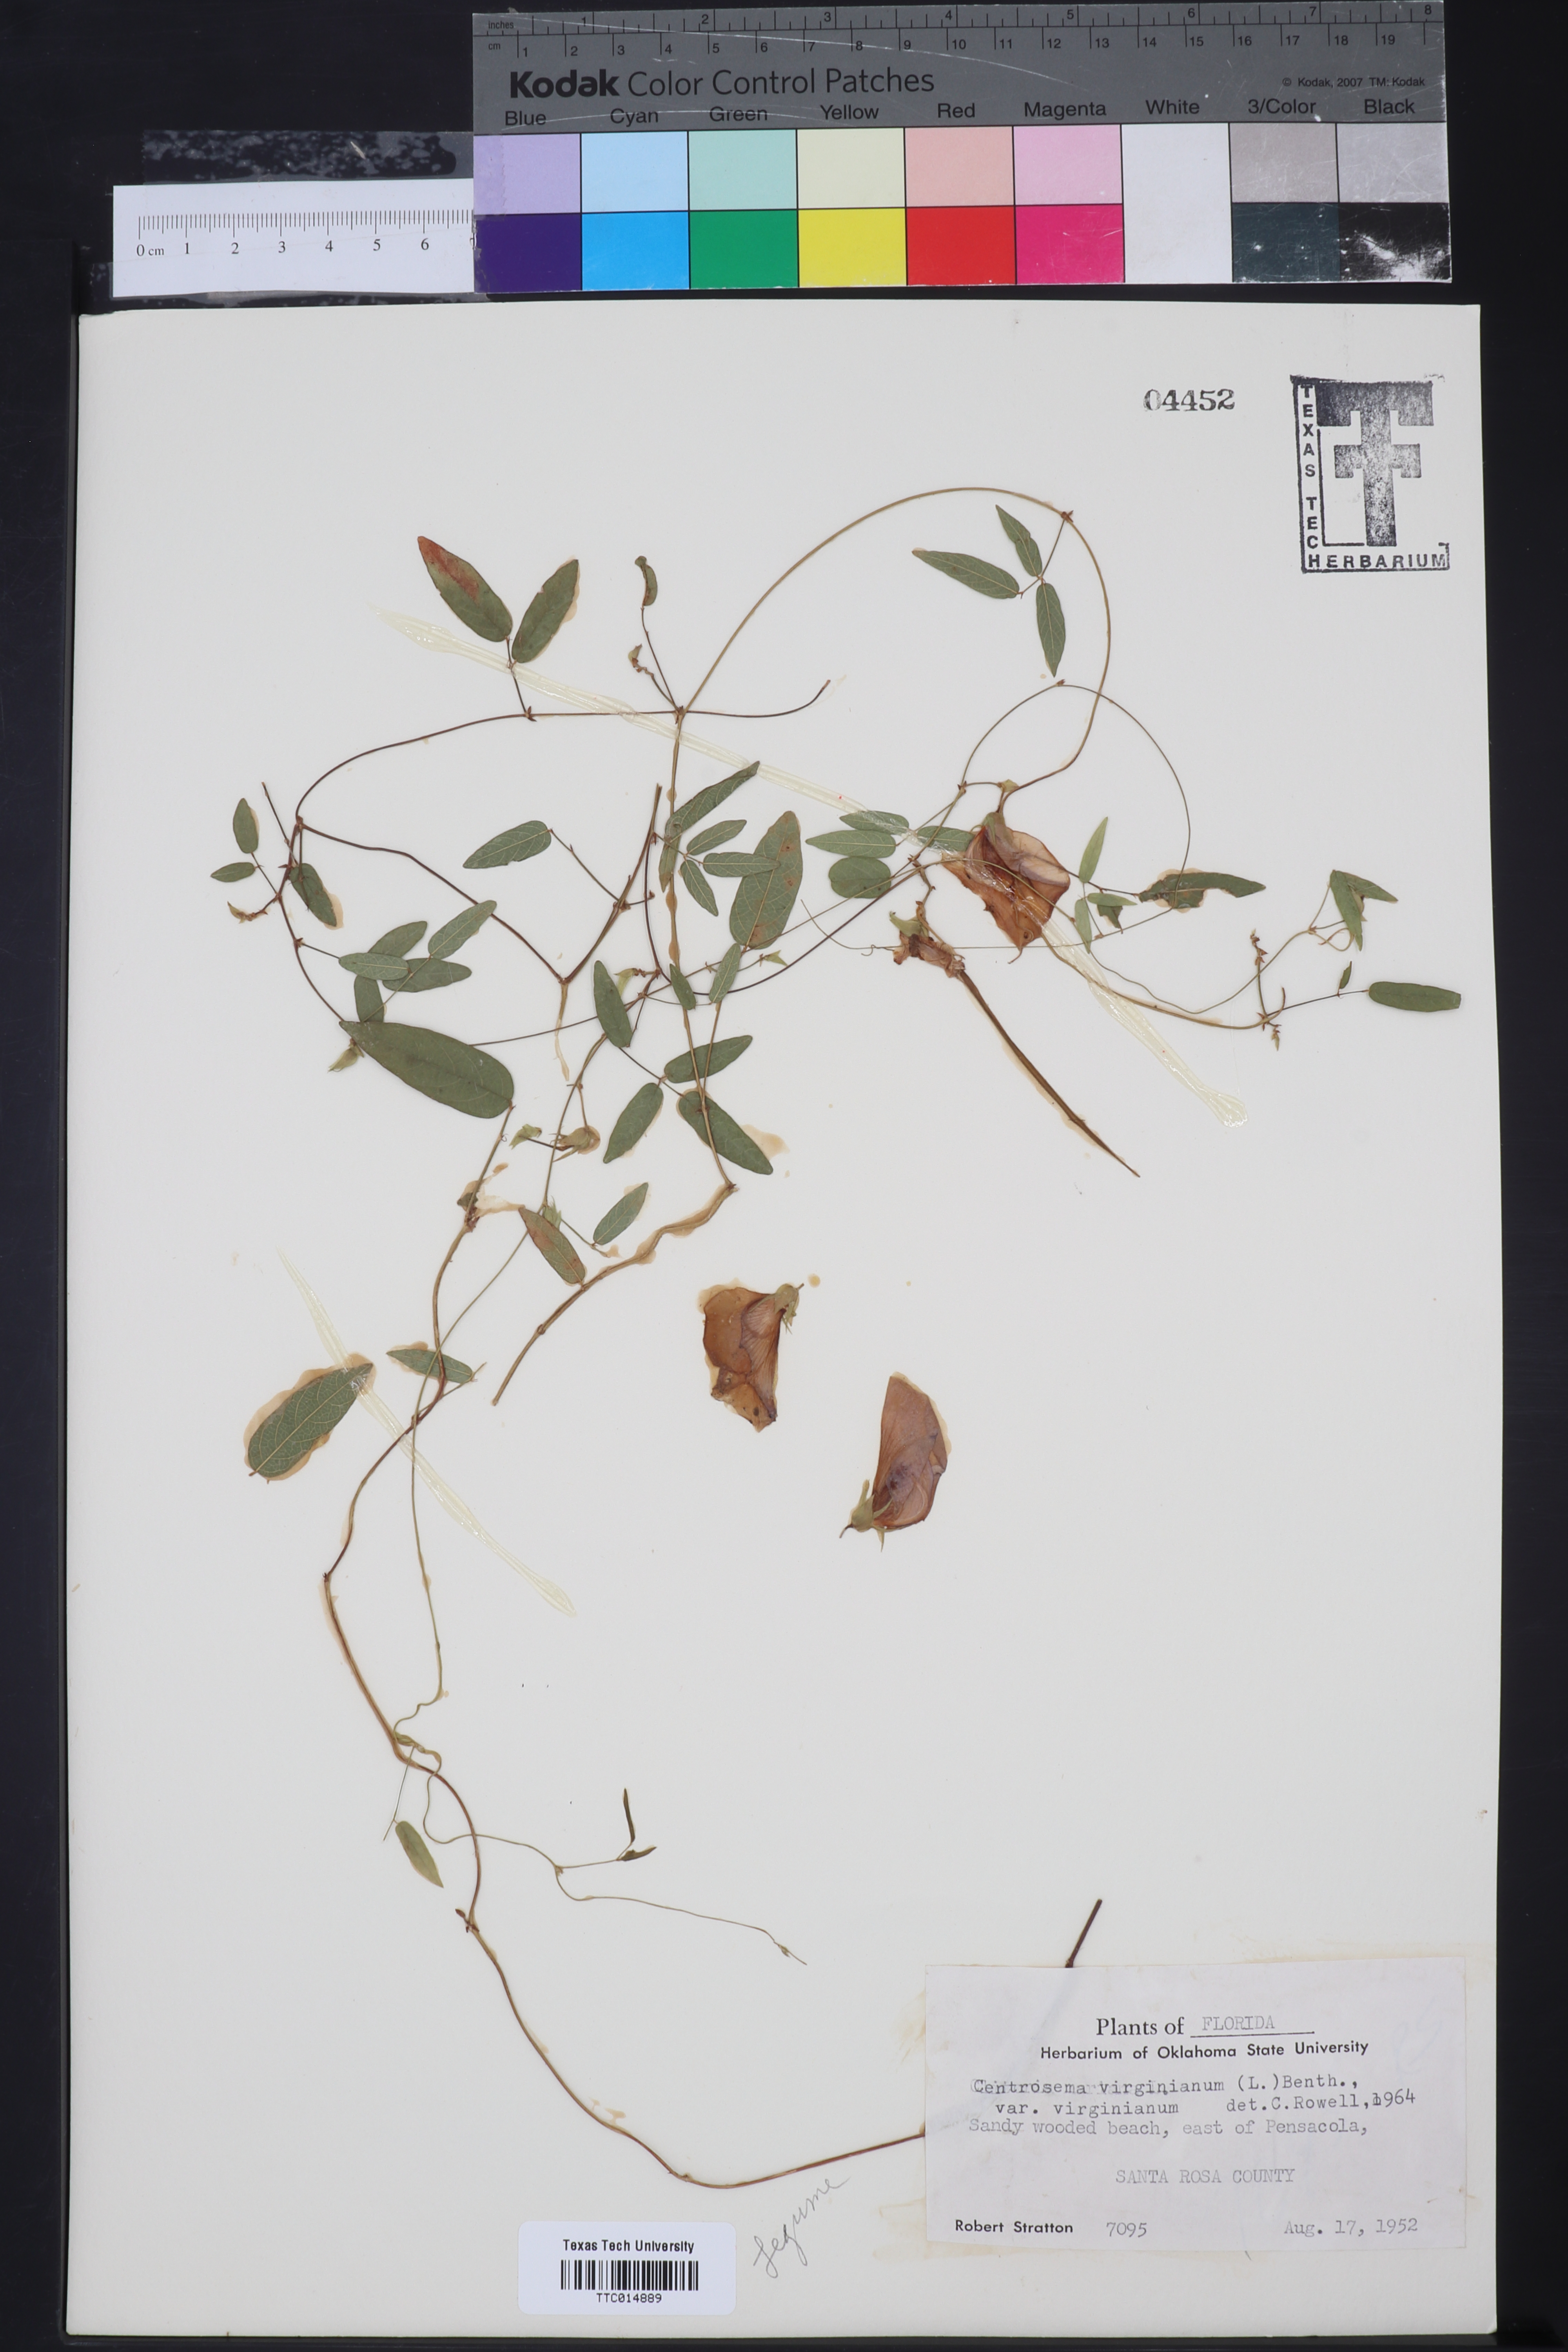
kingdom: Plantae
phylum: Tracheophyta
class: Magnoliopsida
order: Fabales
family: Fabaceae
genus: Centrosema
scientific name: Centrosema virginianum
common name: Butterfly-pea
